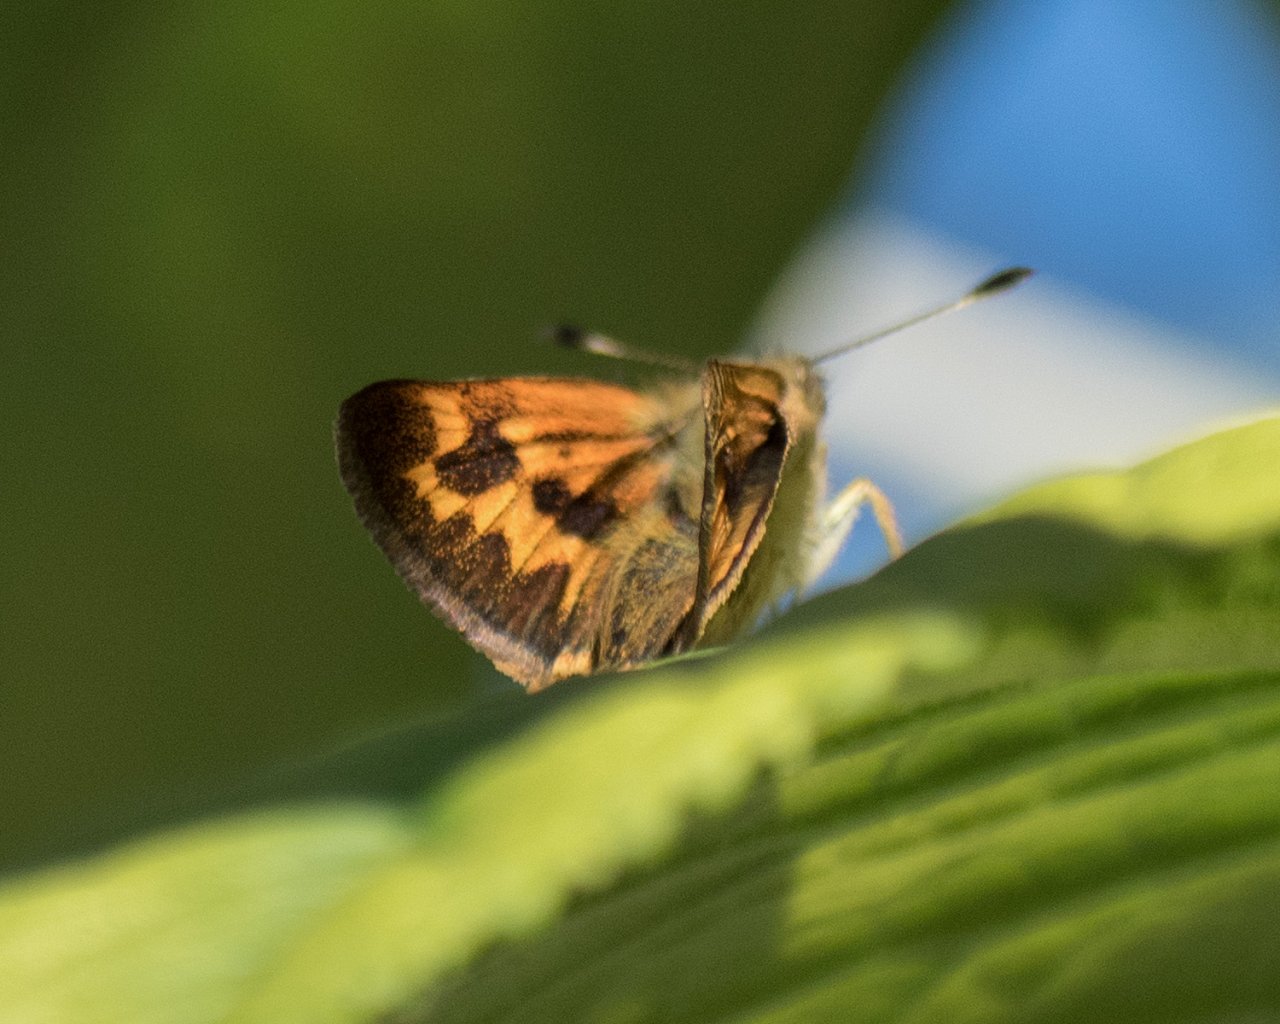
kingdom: Animalia
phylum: Arthropoda
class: Insecta
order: Lepidoptera
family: Hesperiidae
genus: Ochlodes
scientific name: Ochlodes sylvanoides
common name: Woodland Skipper
